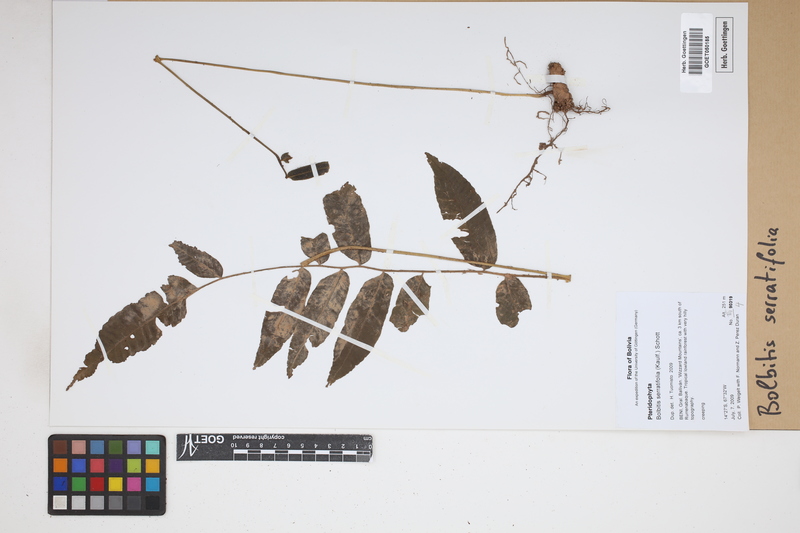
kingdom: Plantae
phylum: Tracheophyta
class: Polypodiopsida
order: Polypodiales
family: Dryopteridaceae
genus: Bolbitis
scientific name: Bolbitis serratifolia
